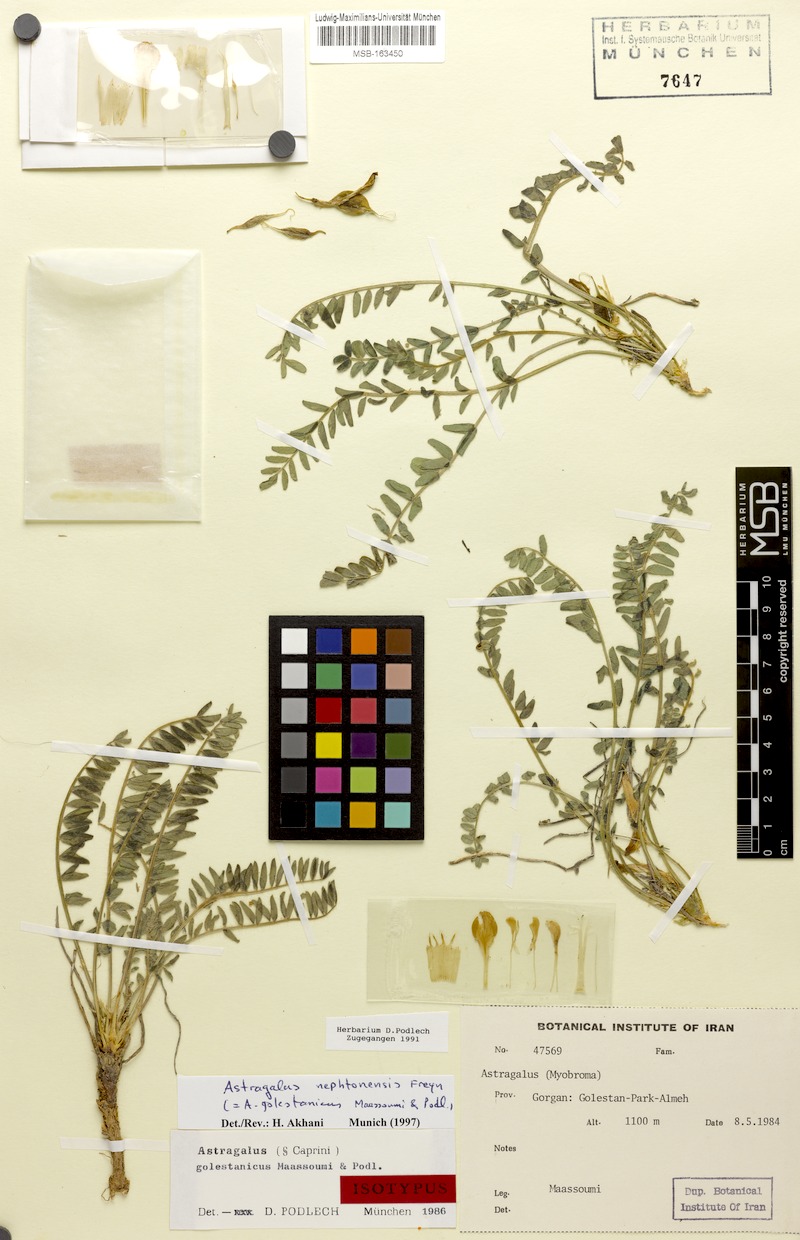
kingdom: Plantae
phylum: Tracheophyta
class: Magnoliopsida
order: Fabales
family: Fabaceae
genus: Astragalus
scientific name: Astragalus nephtonensis
